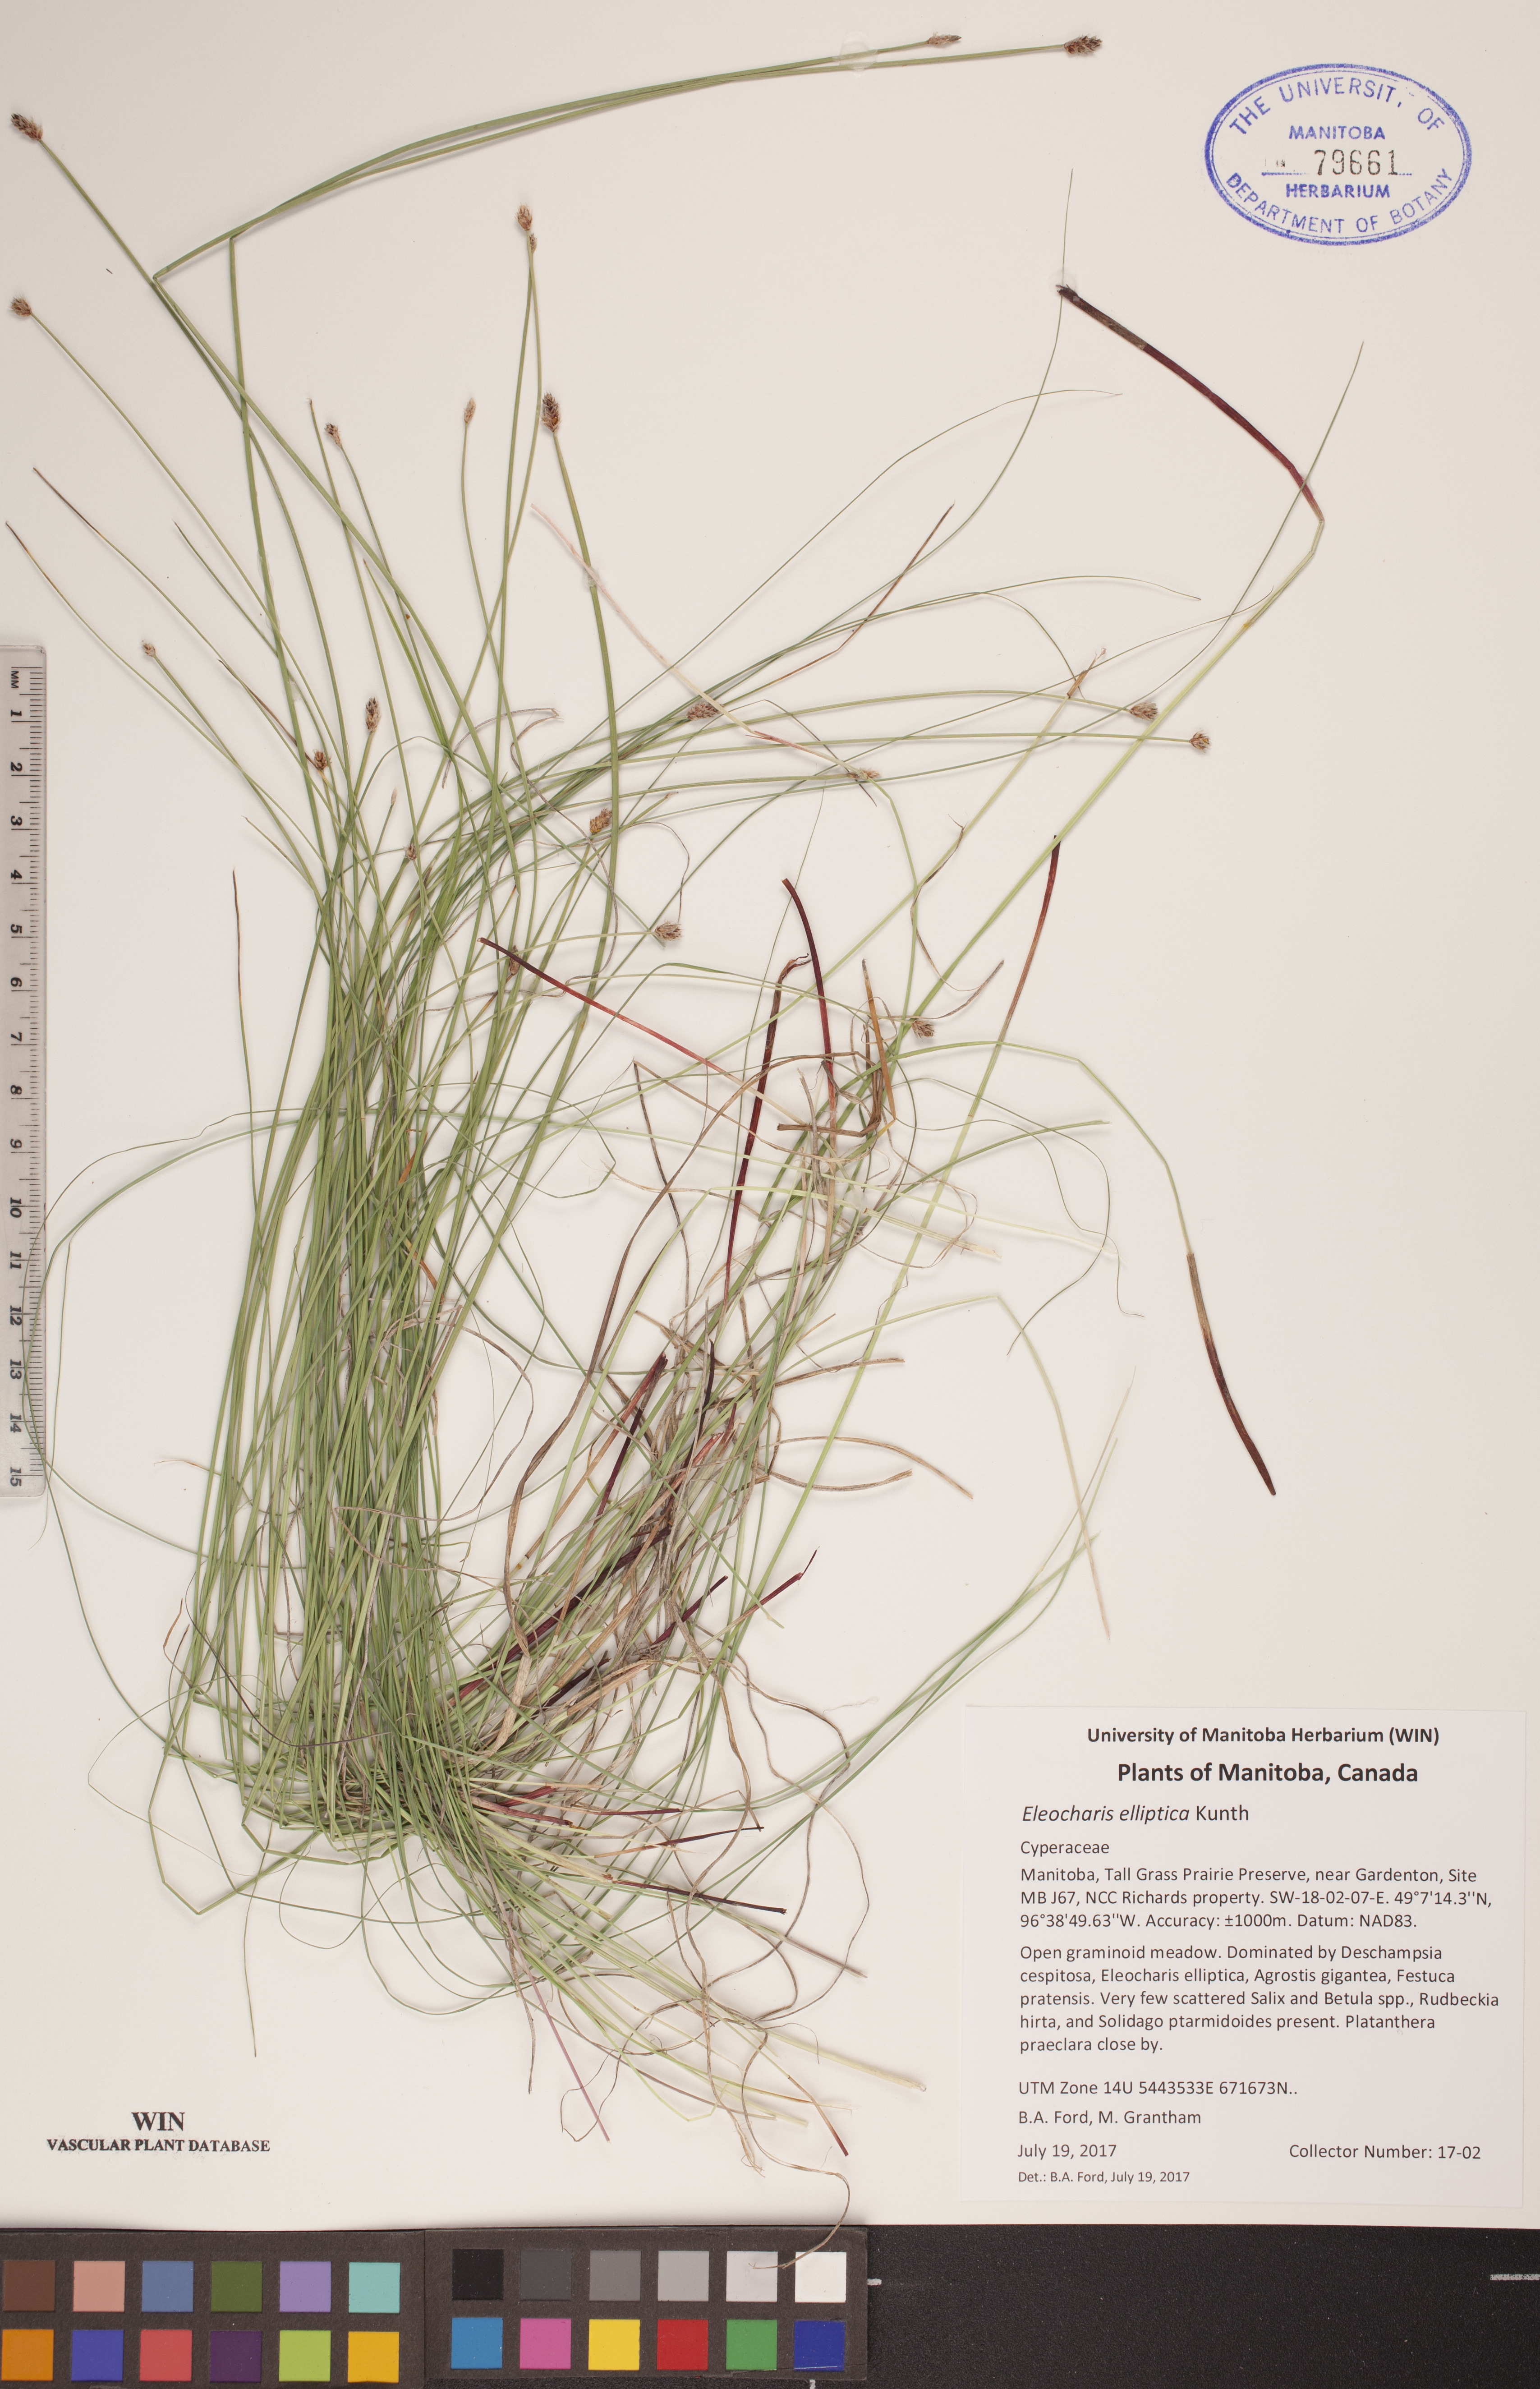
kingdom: Plantae
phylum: Tracheophyta
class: Liliopsida
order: Poales
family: Cyperaceae
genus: Eleocharis
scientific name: Eleocharis elliptica
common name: Capitate spikerush
